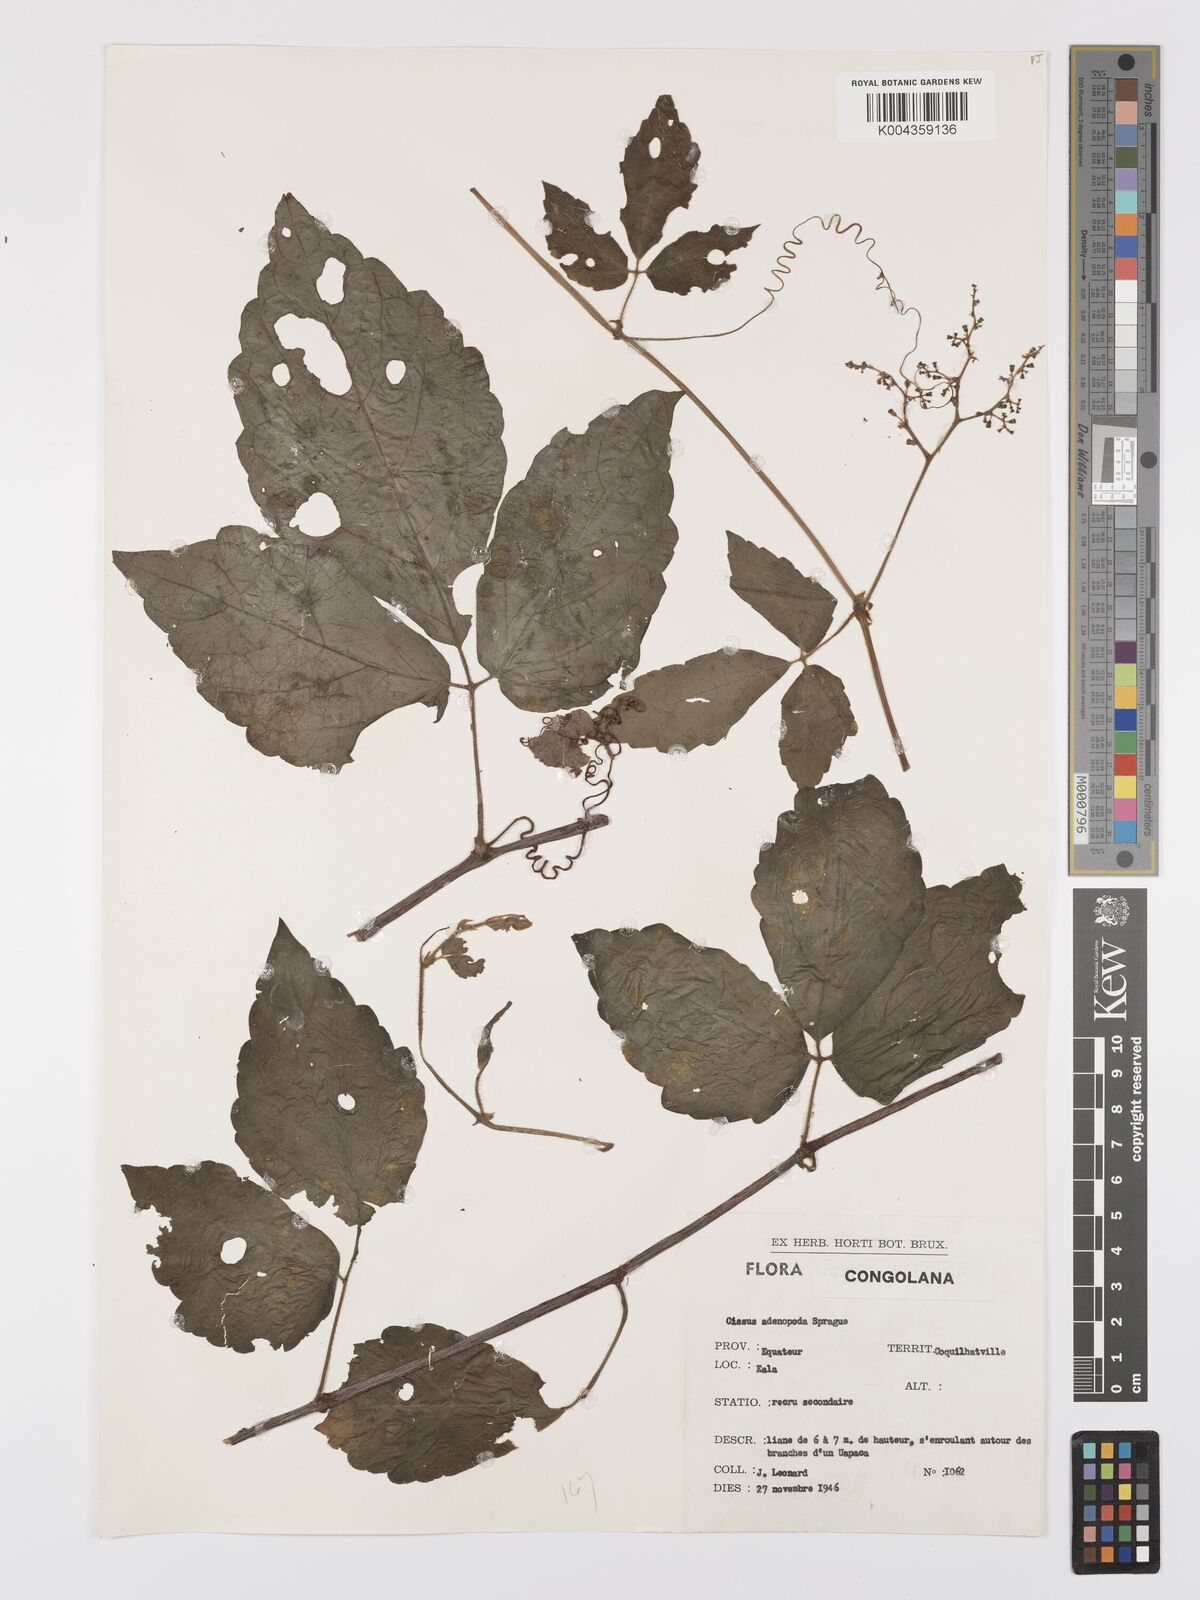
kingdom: Plantae
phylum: Tracheophyta
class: Magnoliopsida
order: Vitales
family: Vitaceae
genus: Cyphostemma
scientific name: Cyphostemma adenopodum
